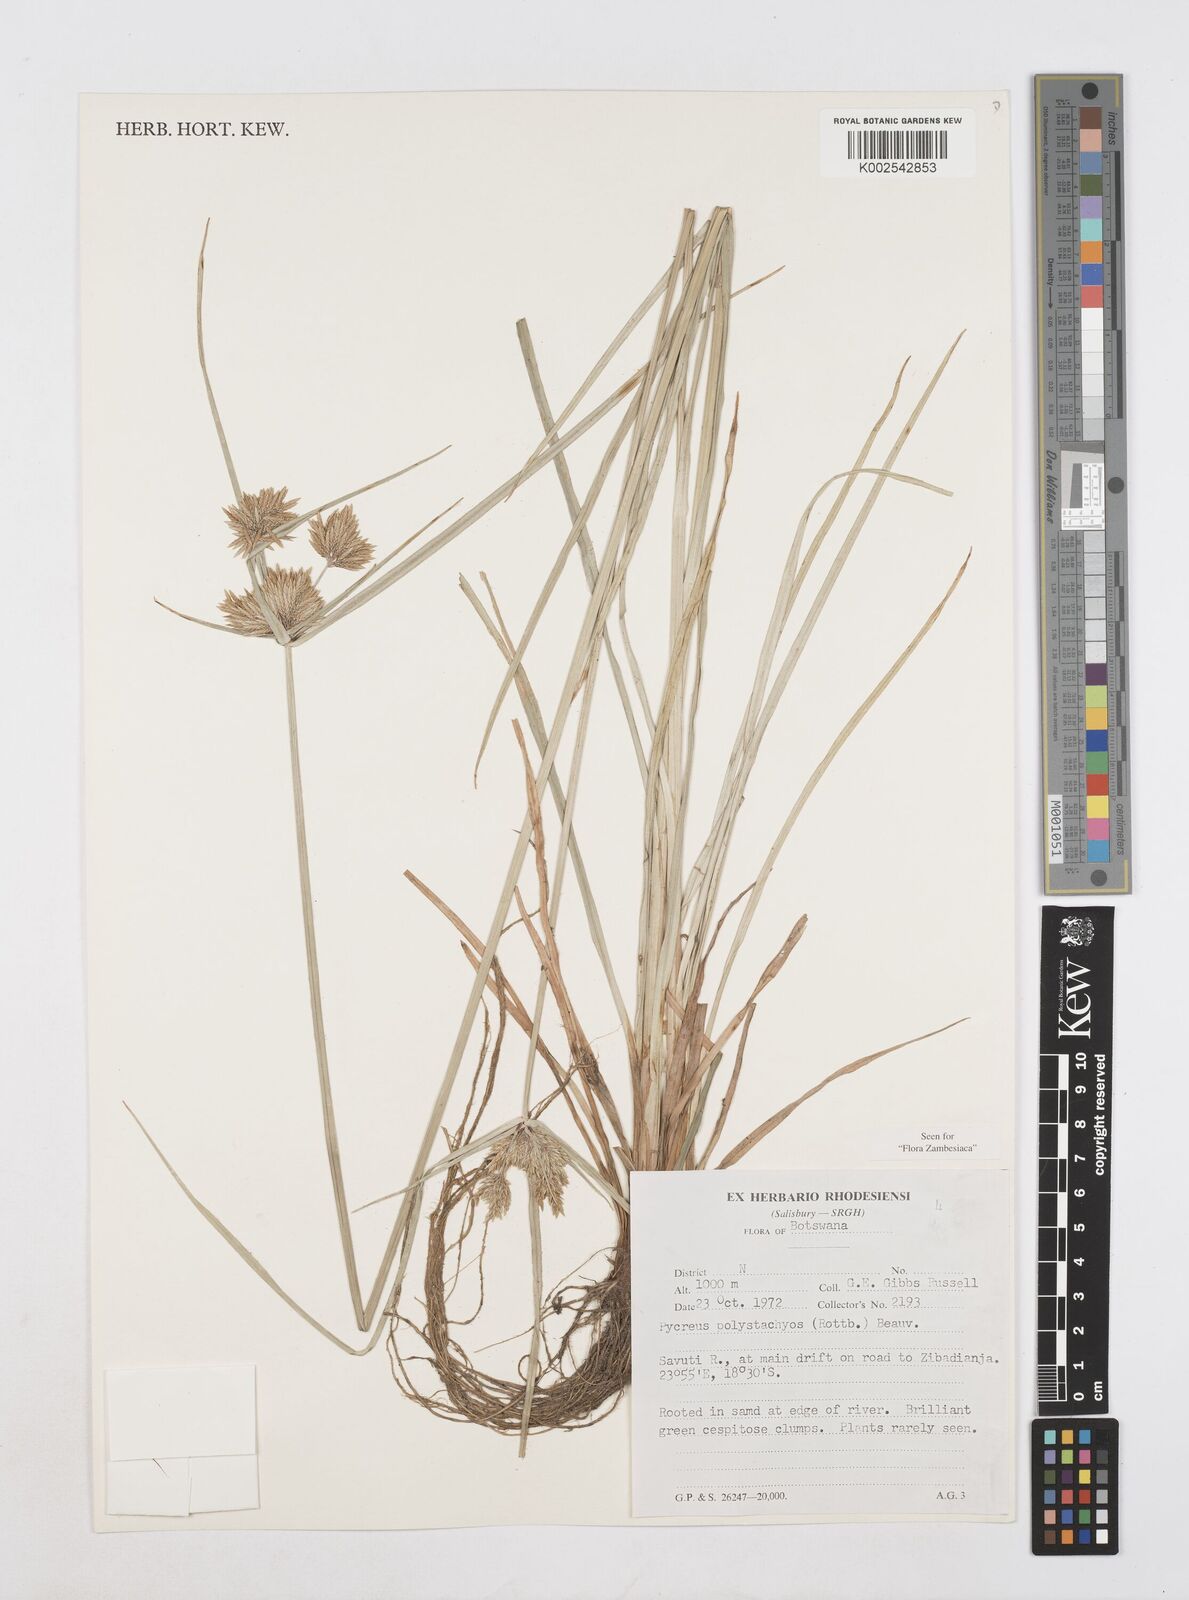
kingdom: Plantae
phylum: Tracheophyta
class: Liliopsida
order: Poales
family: Cyperaceae
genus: Cyperus
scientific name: Cyperus polystachyos
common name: Bunchy flat sedge
